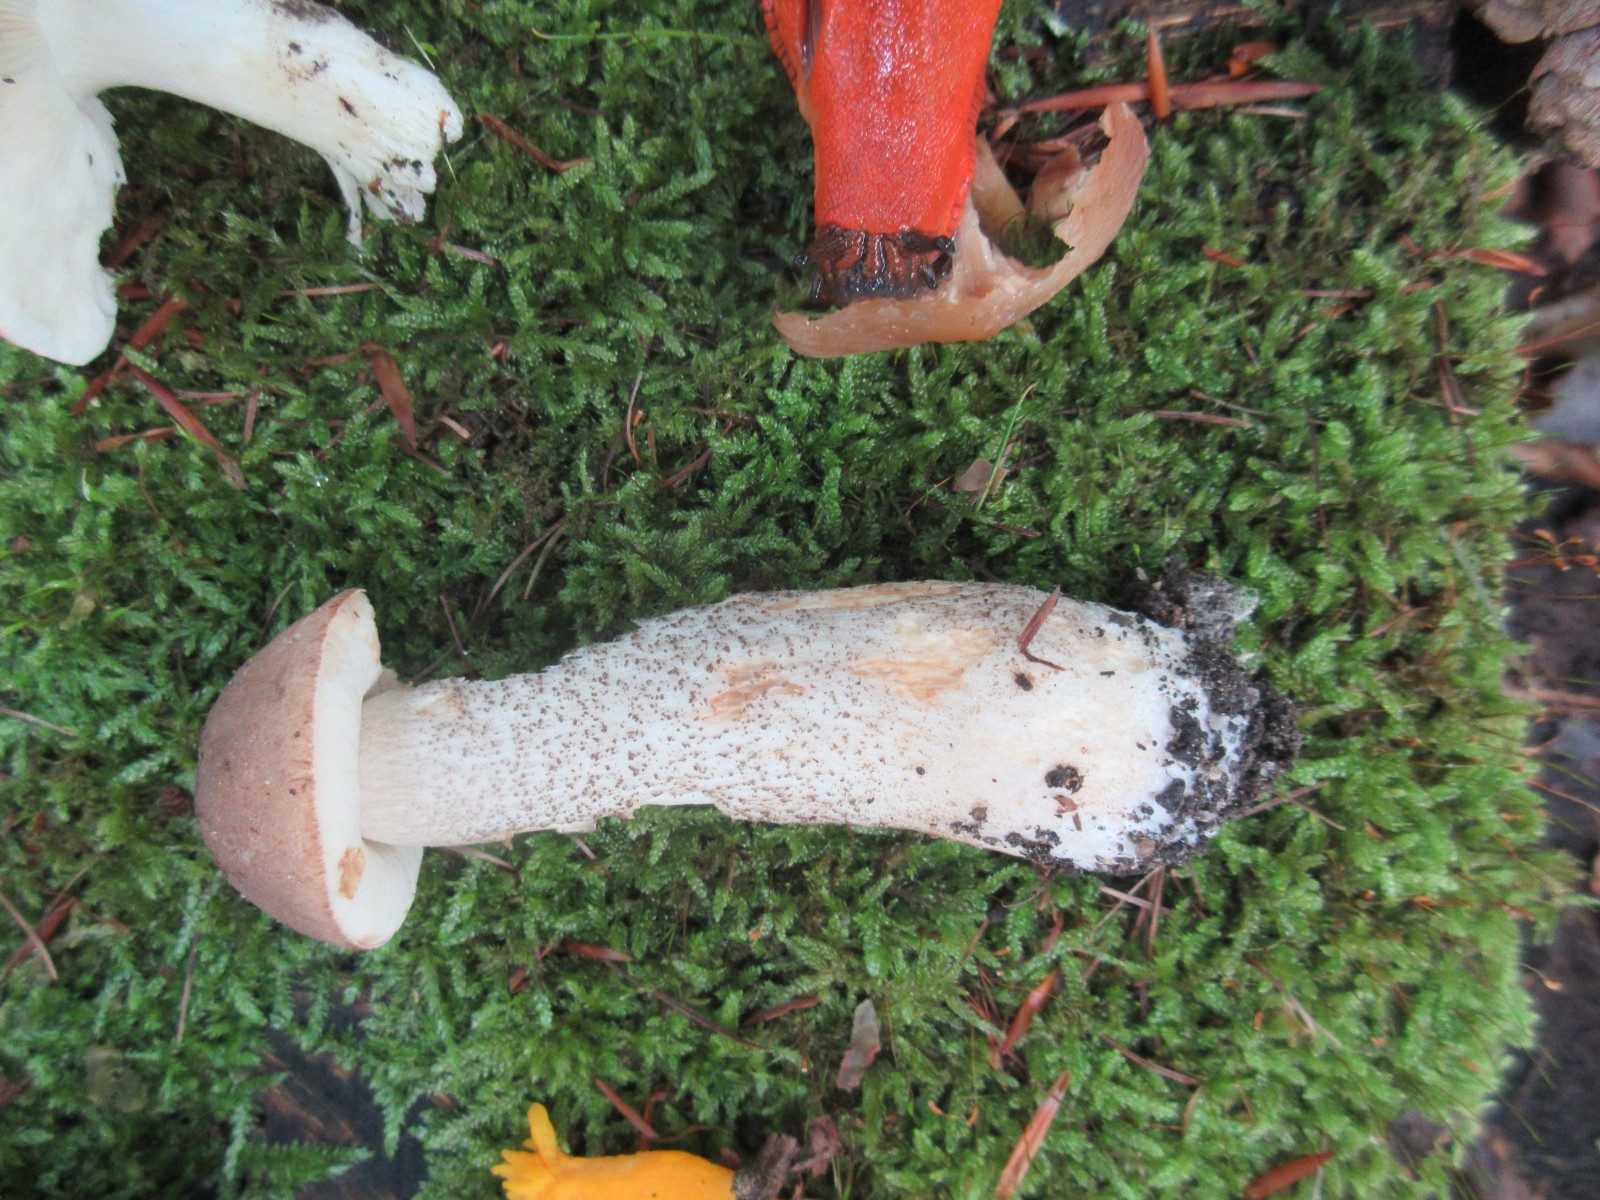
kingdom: Fungi
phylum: Basidiomycota
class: Agaricomycetes
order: Boletales
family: Boletaceae
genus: Leccinum
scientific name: Leccinum scabrum
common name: brun skælrørhat
